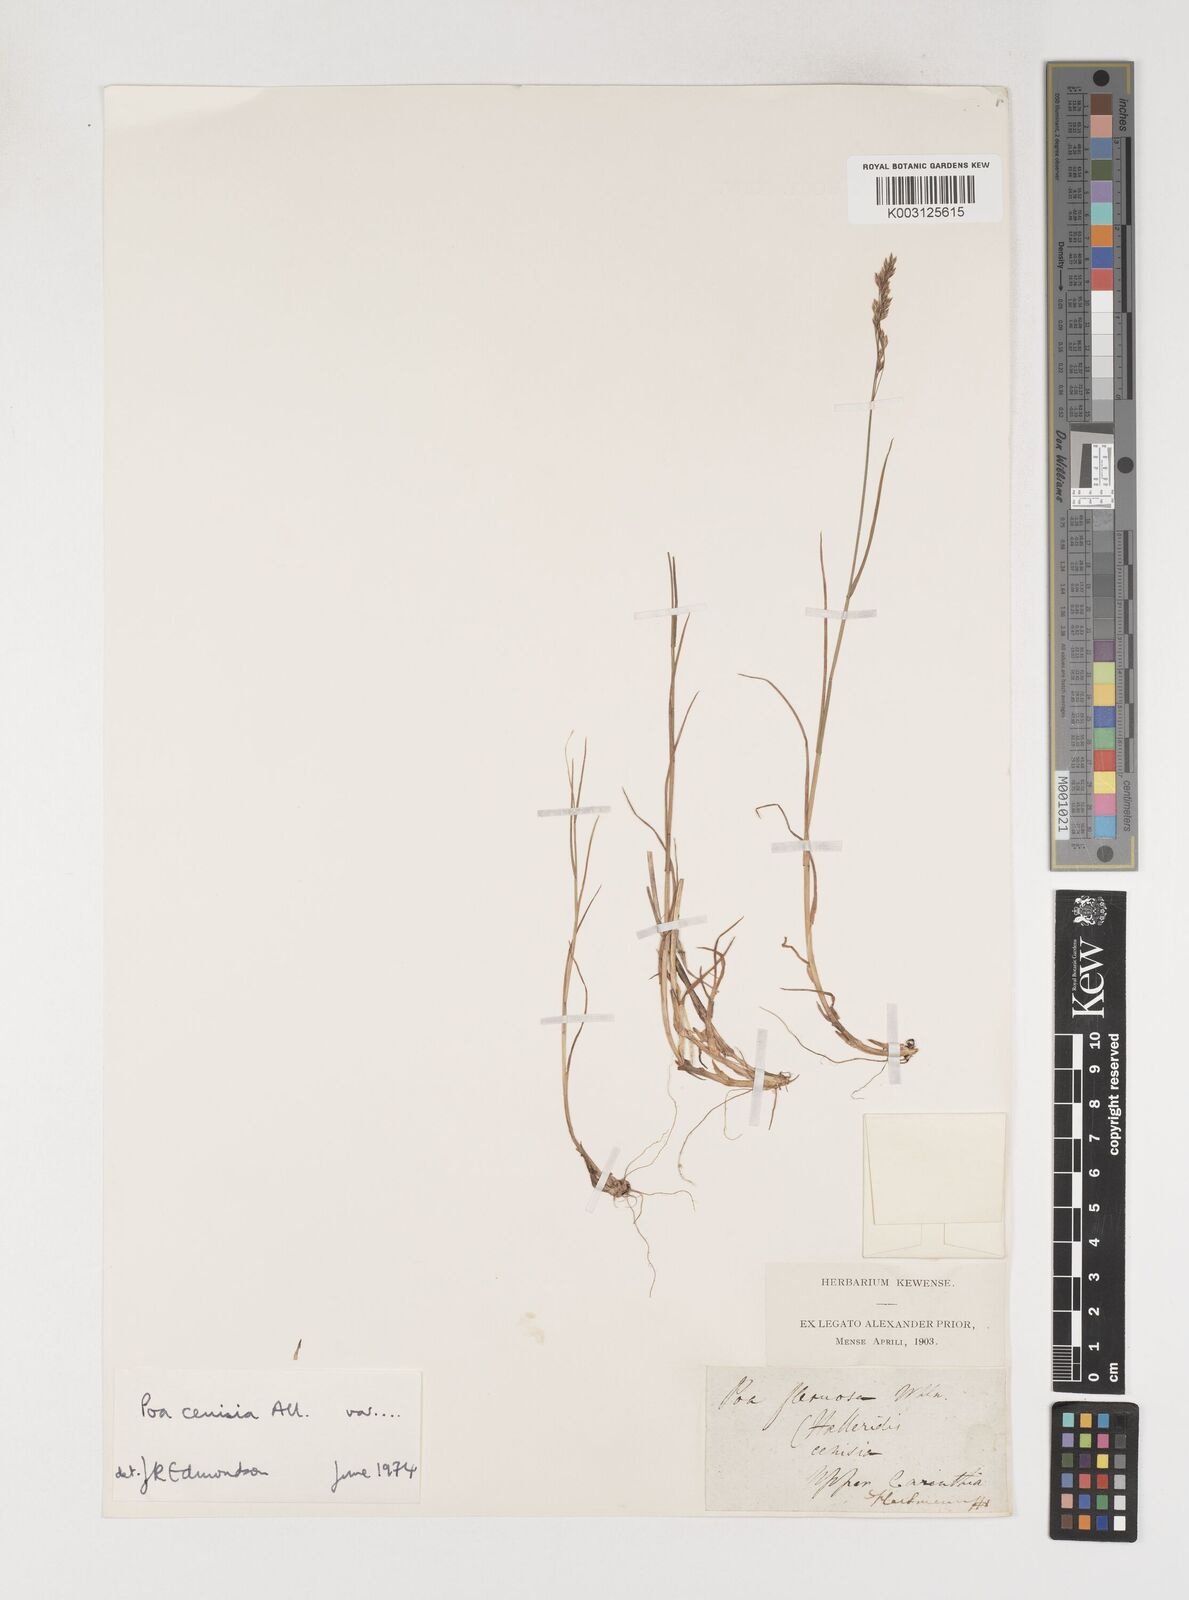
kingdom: Plantae
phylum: Tracheophyta
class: Liliopsida
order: Poales
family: Poaceae
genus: Poa
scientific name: Poa cenisia
